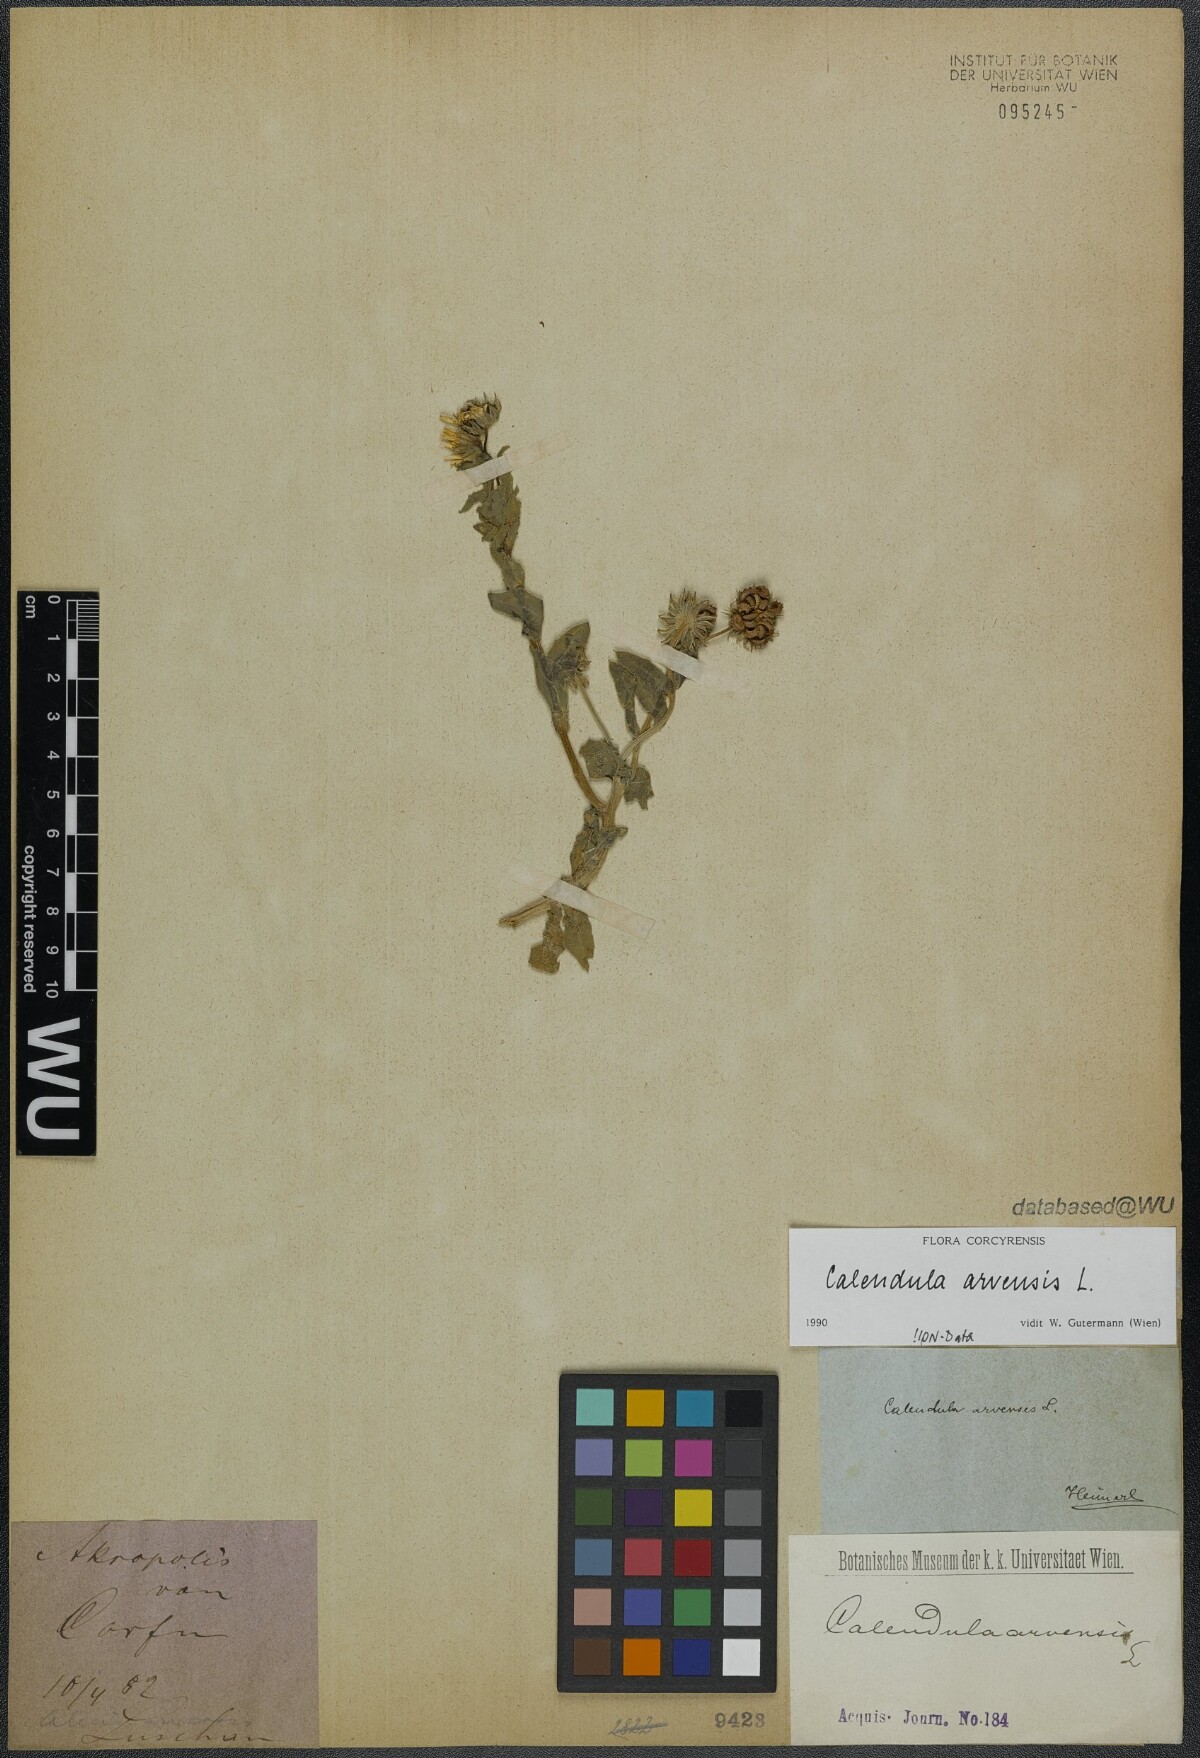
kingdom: Plantae
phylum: Tracheophyta
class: Magnoliopsida
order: Asterales
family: Asteraceae
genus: Calendula
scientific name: Calendula arvensis
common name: Field marigold
